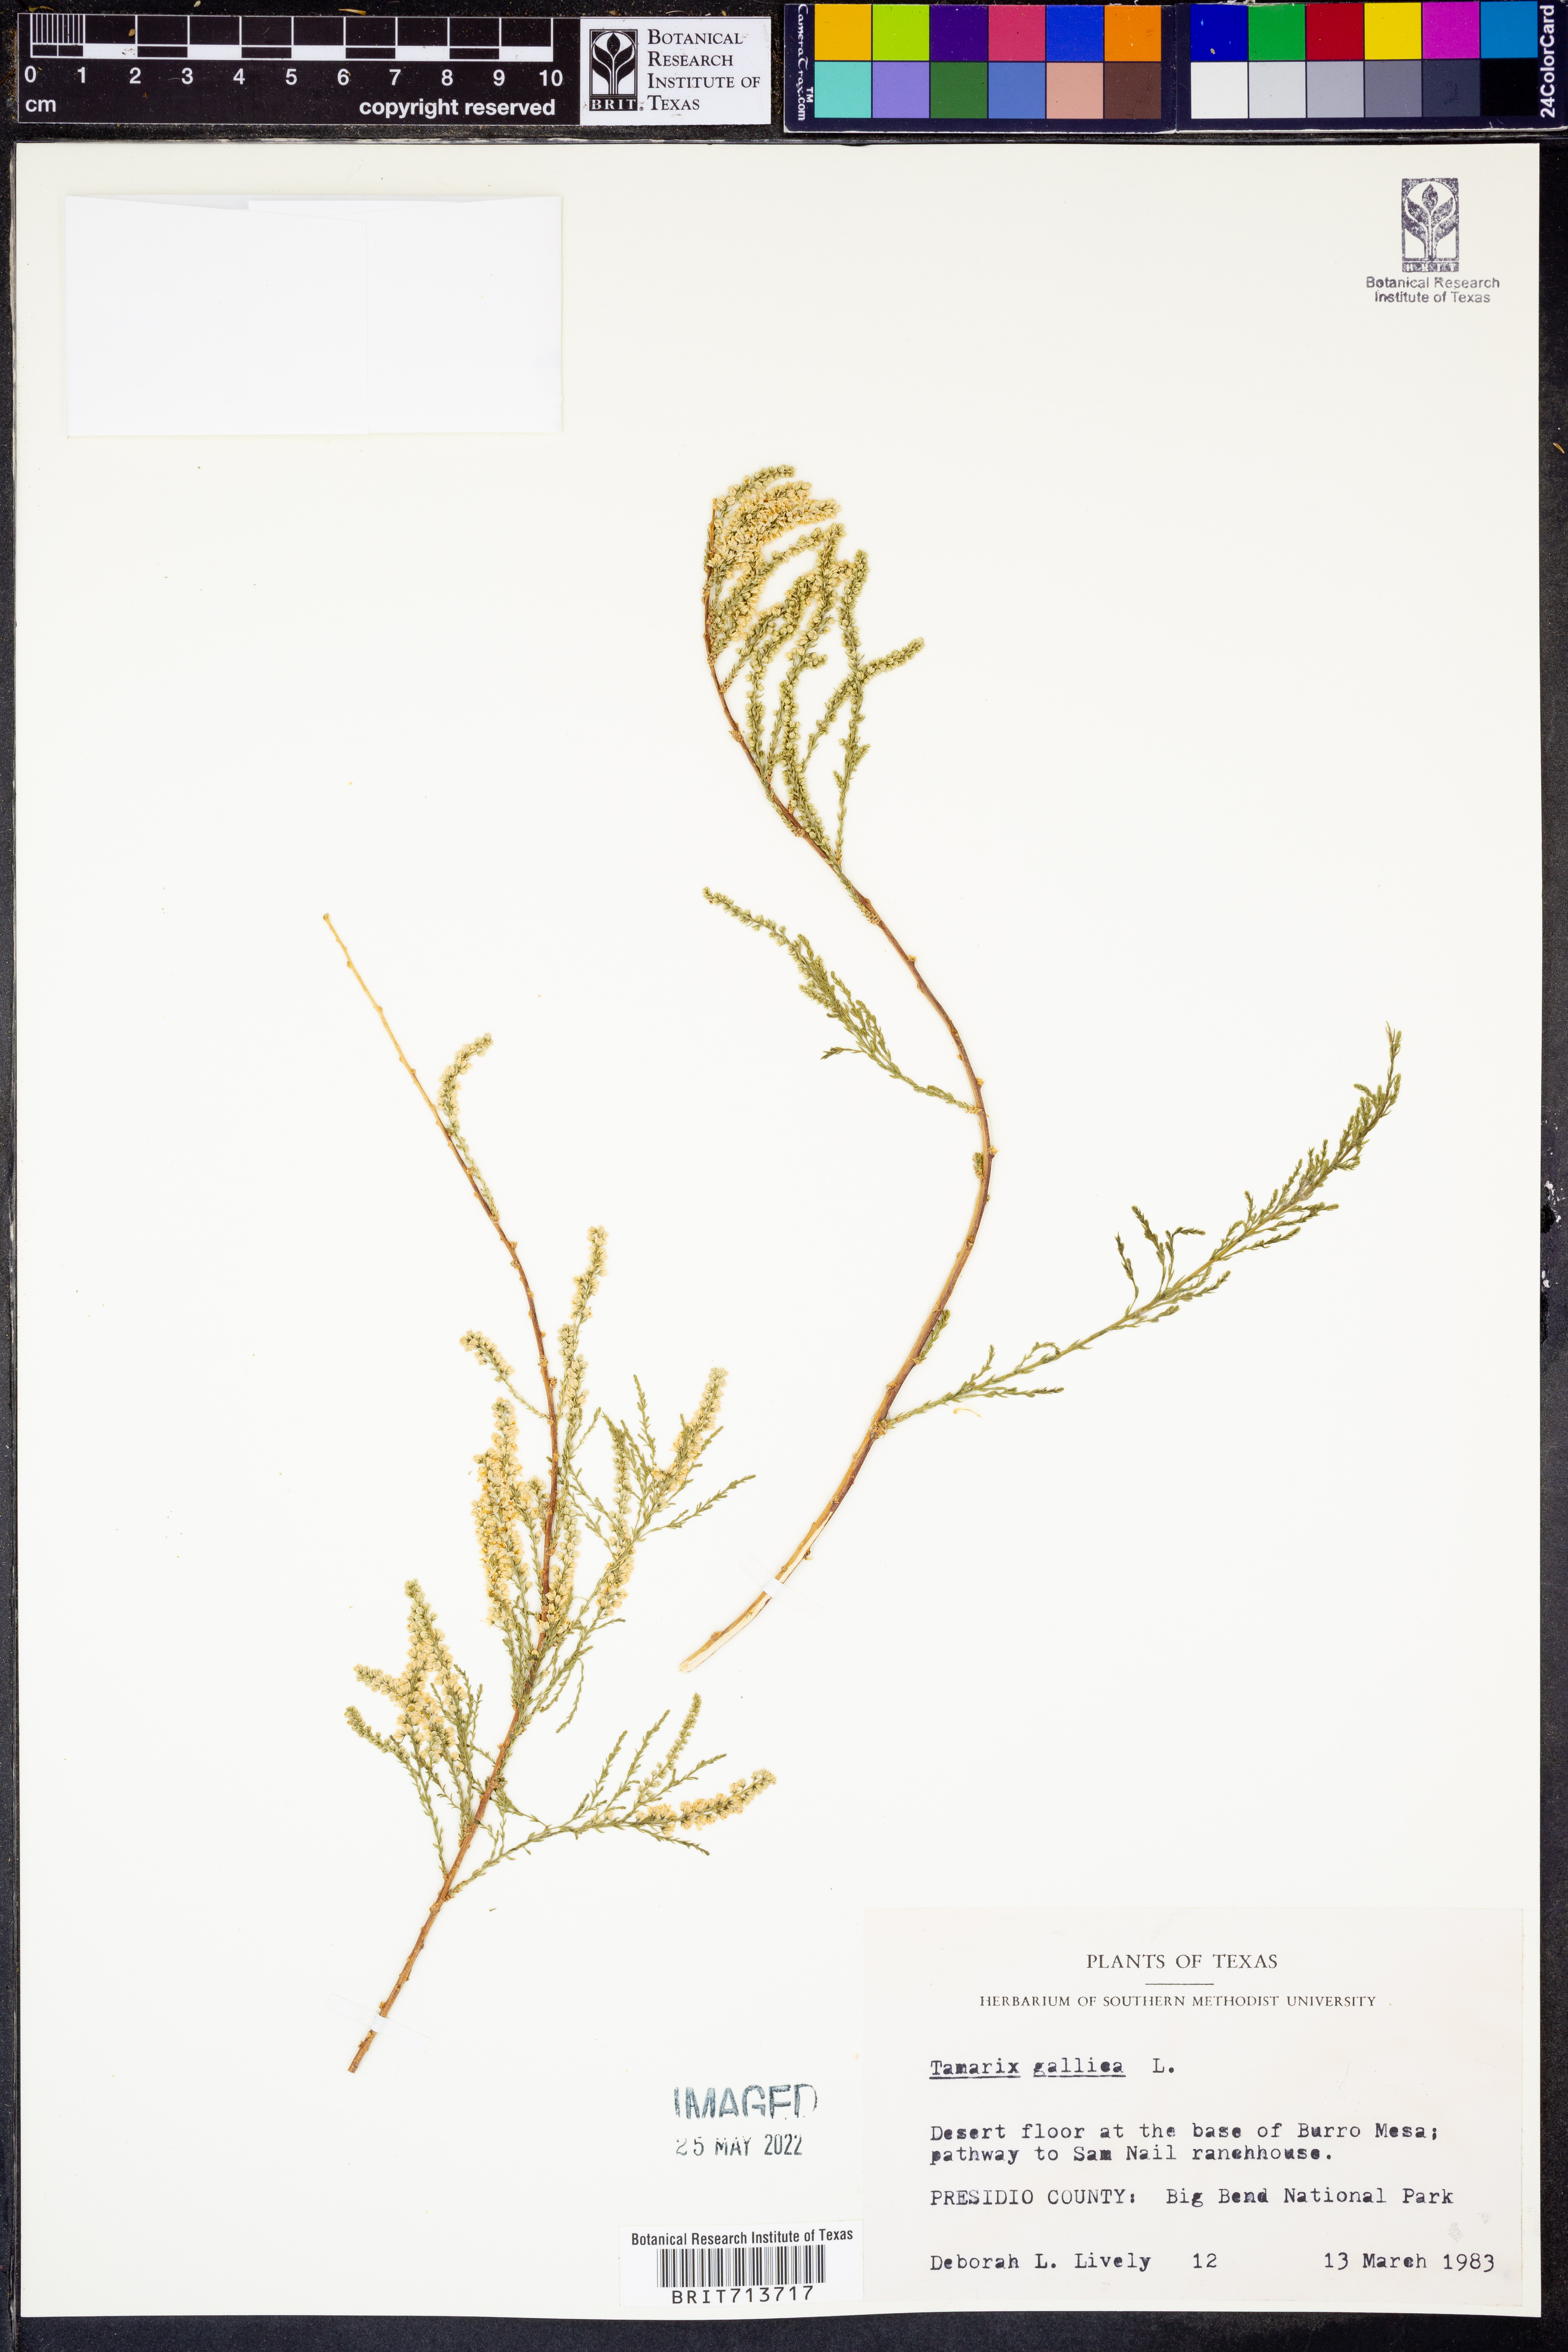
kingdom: Plantae
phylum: Tracheophyta
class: Magnoliopsida
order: Caryophyllales
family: Tamaricaceae
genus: Tamarix
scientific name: Tamarix gallica
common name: Tamarisk
